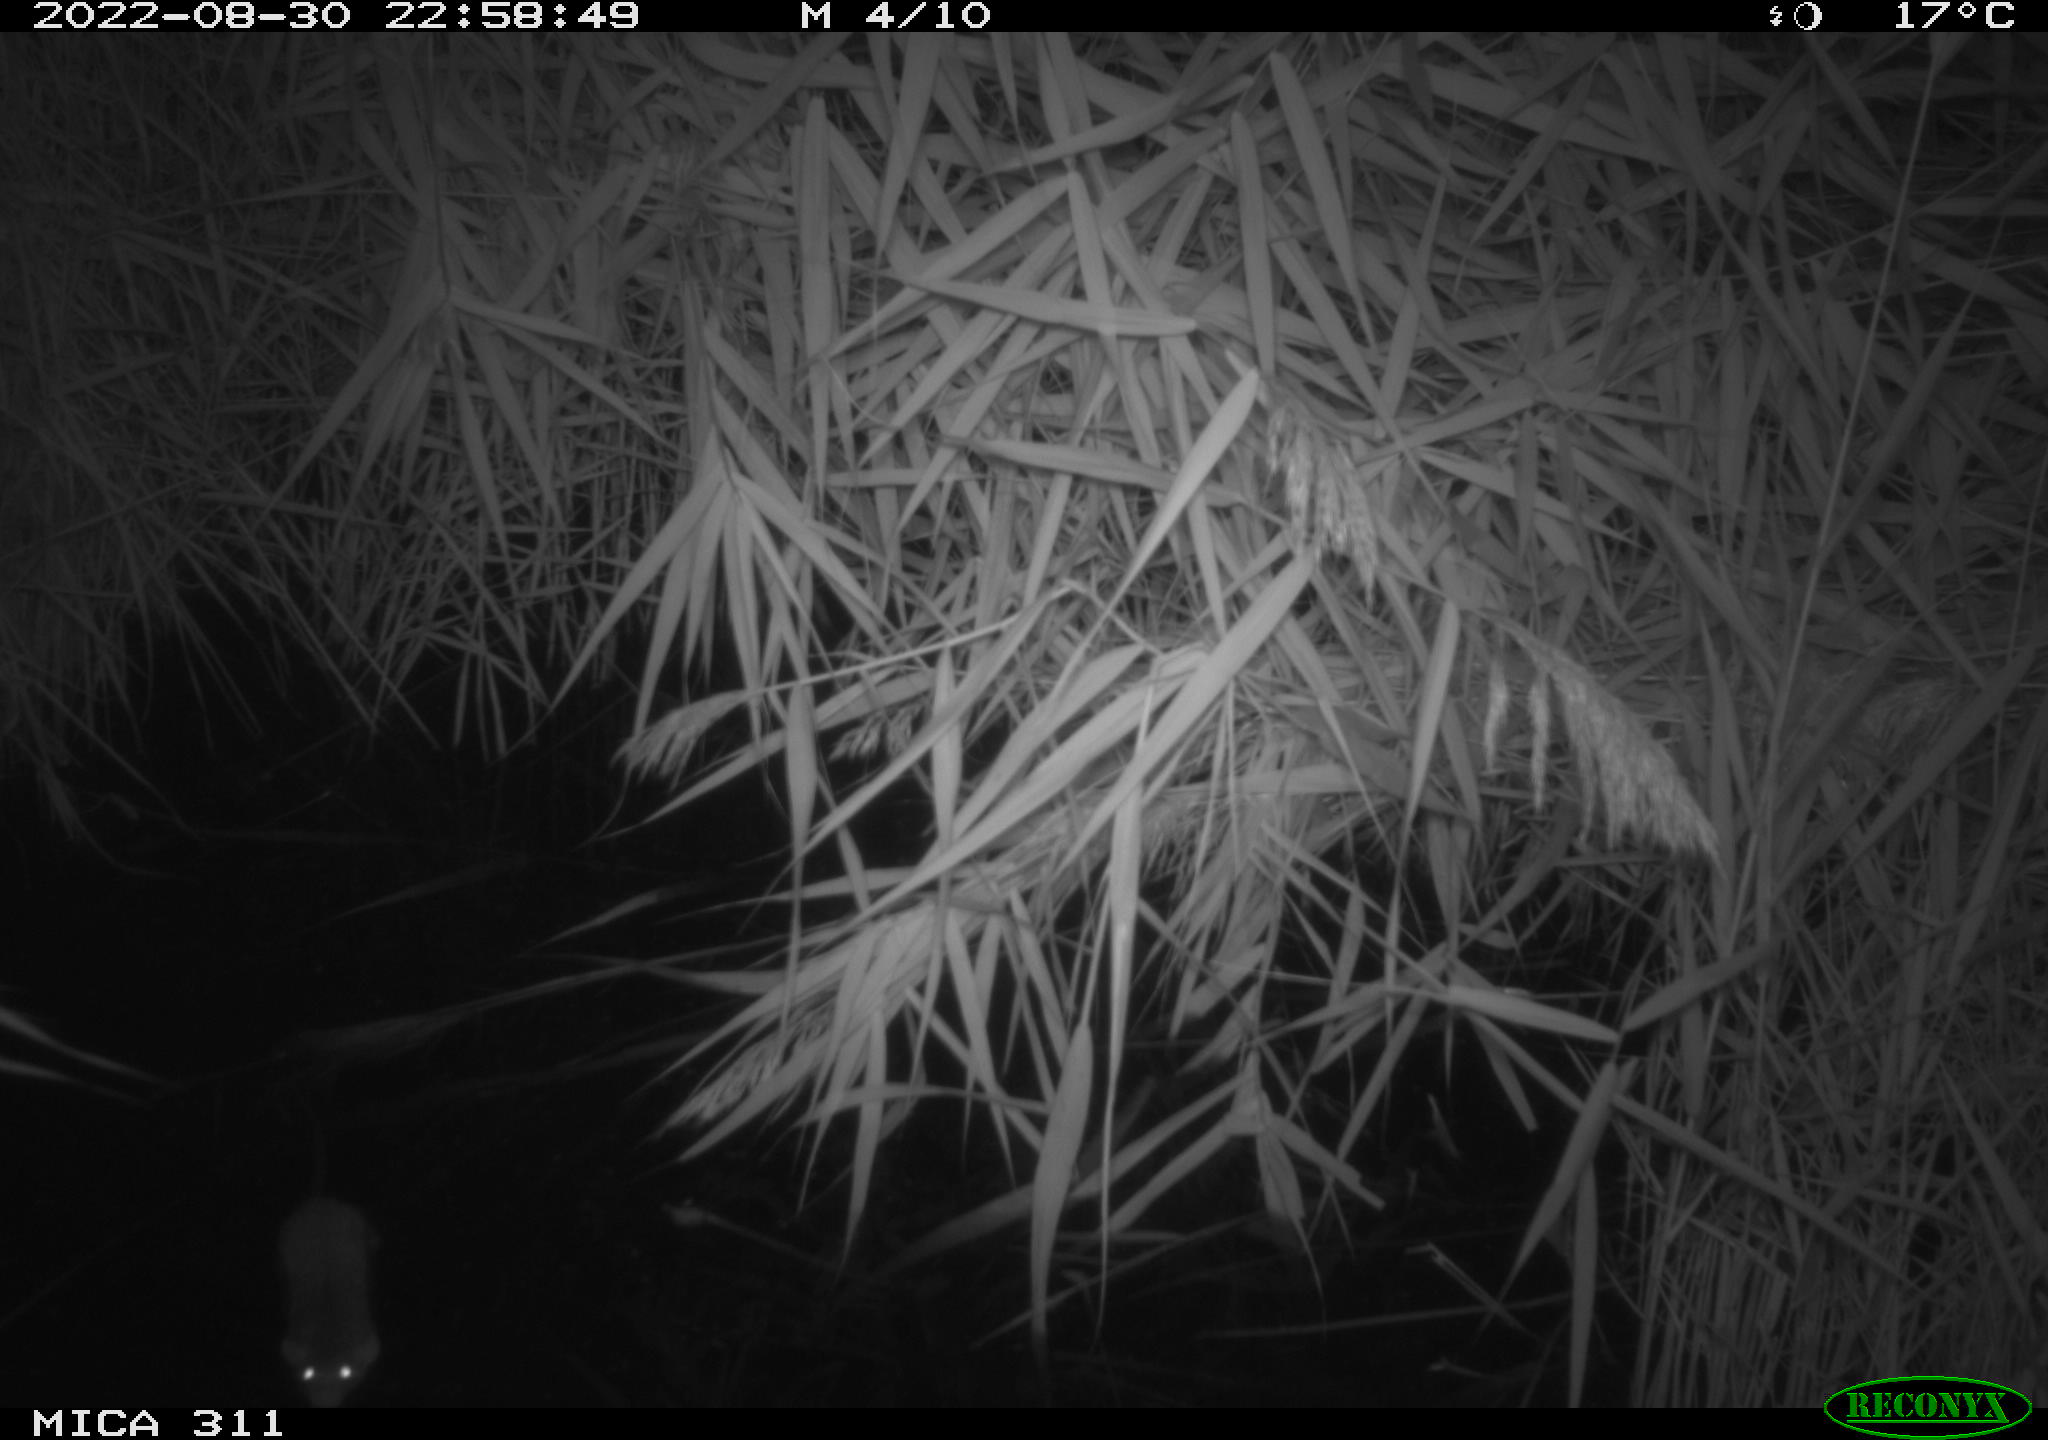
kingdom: Animalia
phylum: Chordata
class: Mammalia
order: Rodentia
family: Muridae
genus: Rattus
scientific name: Rattus norvegicus
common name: Brown rat
